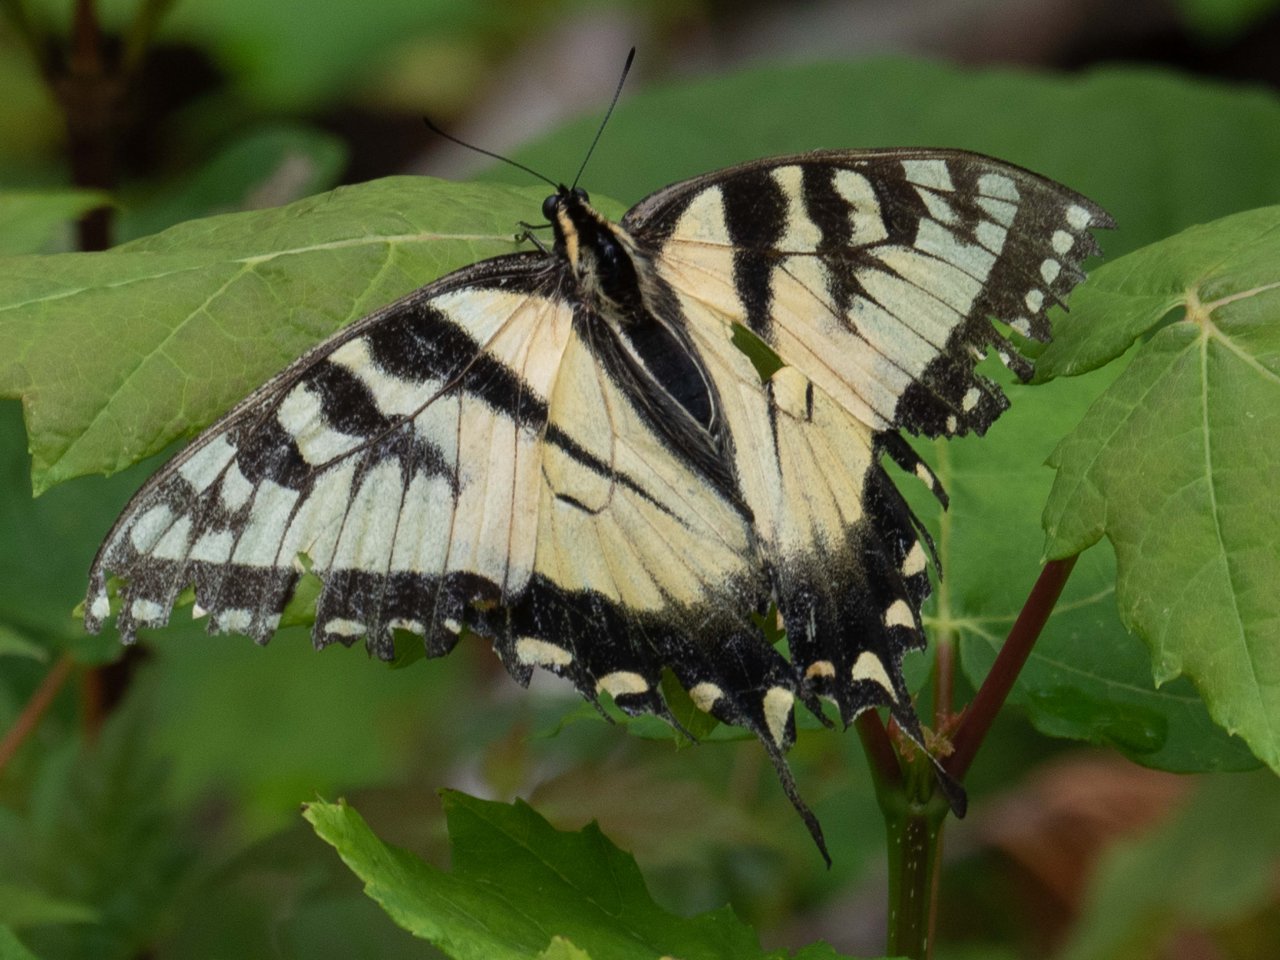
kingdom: Animalia
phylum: Arthropoda
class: Insecta
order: Lepidoptera
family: Papilionidae
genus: Pterourus
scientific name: Pterourus
